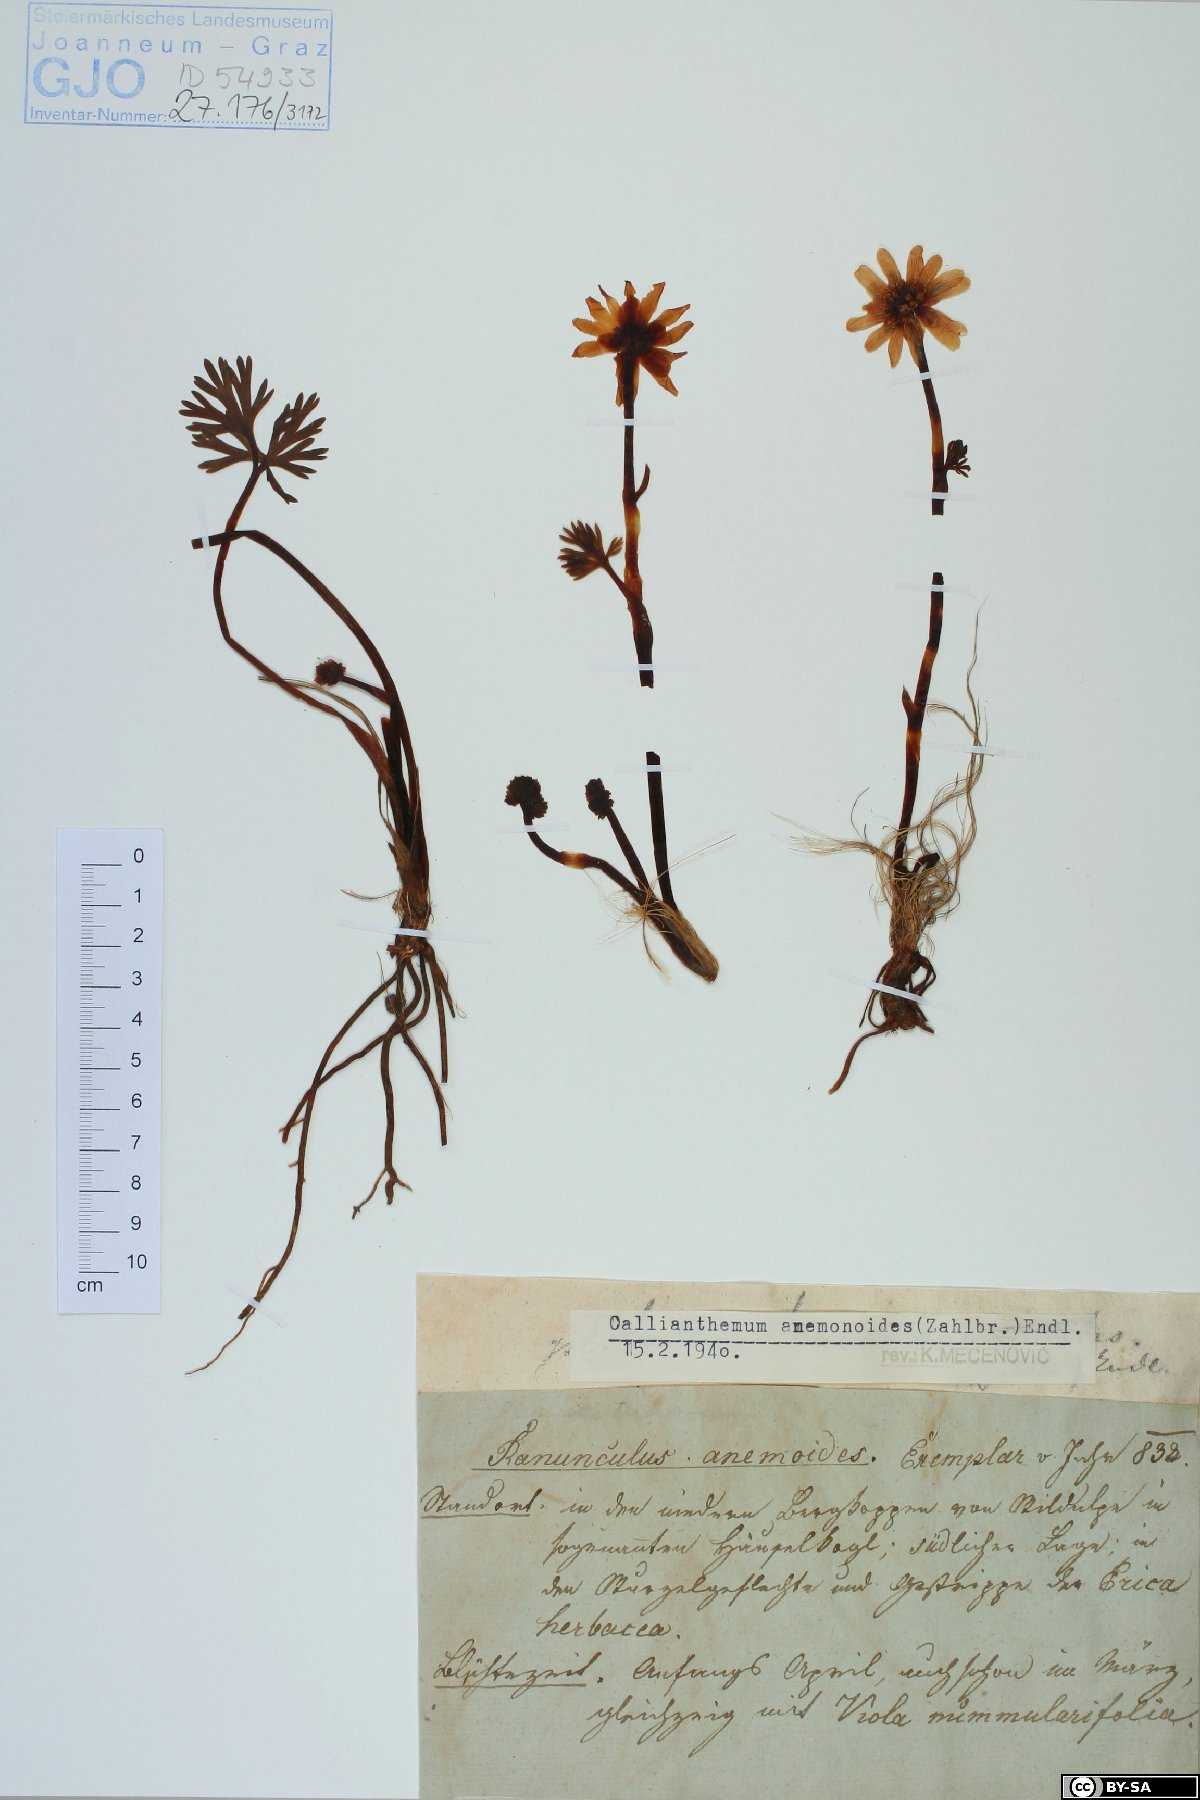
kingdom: Plantae
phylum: Tracheophyta
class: Magnoliopsida
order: Ranunculales
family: Ranunculaceae
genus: Callianthemum
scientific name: Callianthemum anemonoides
